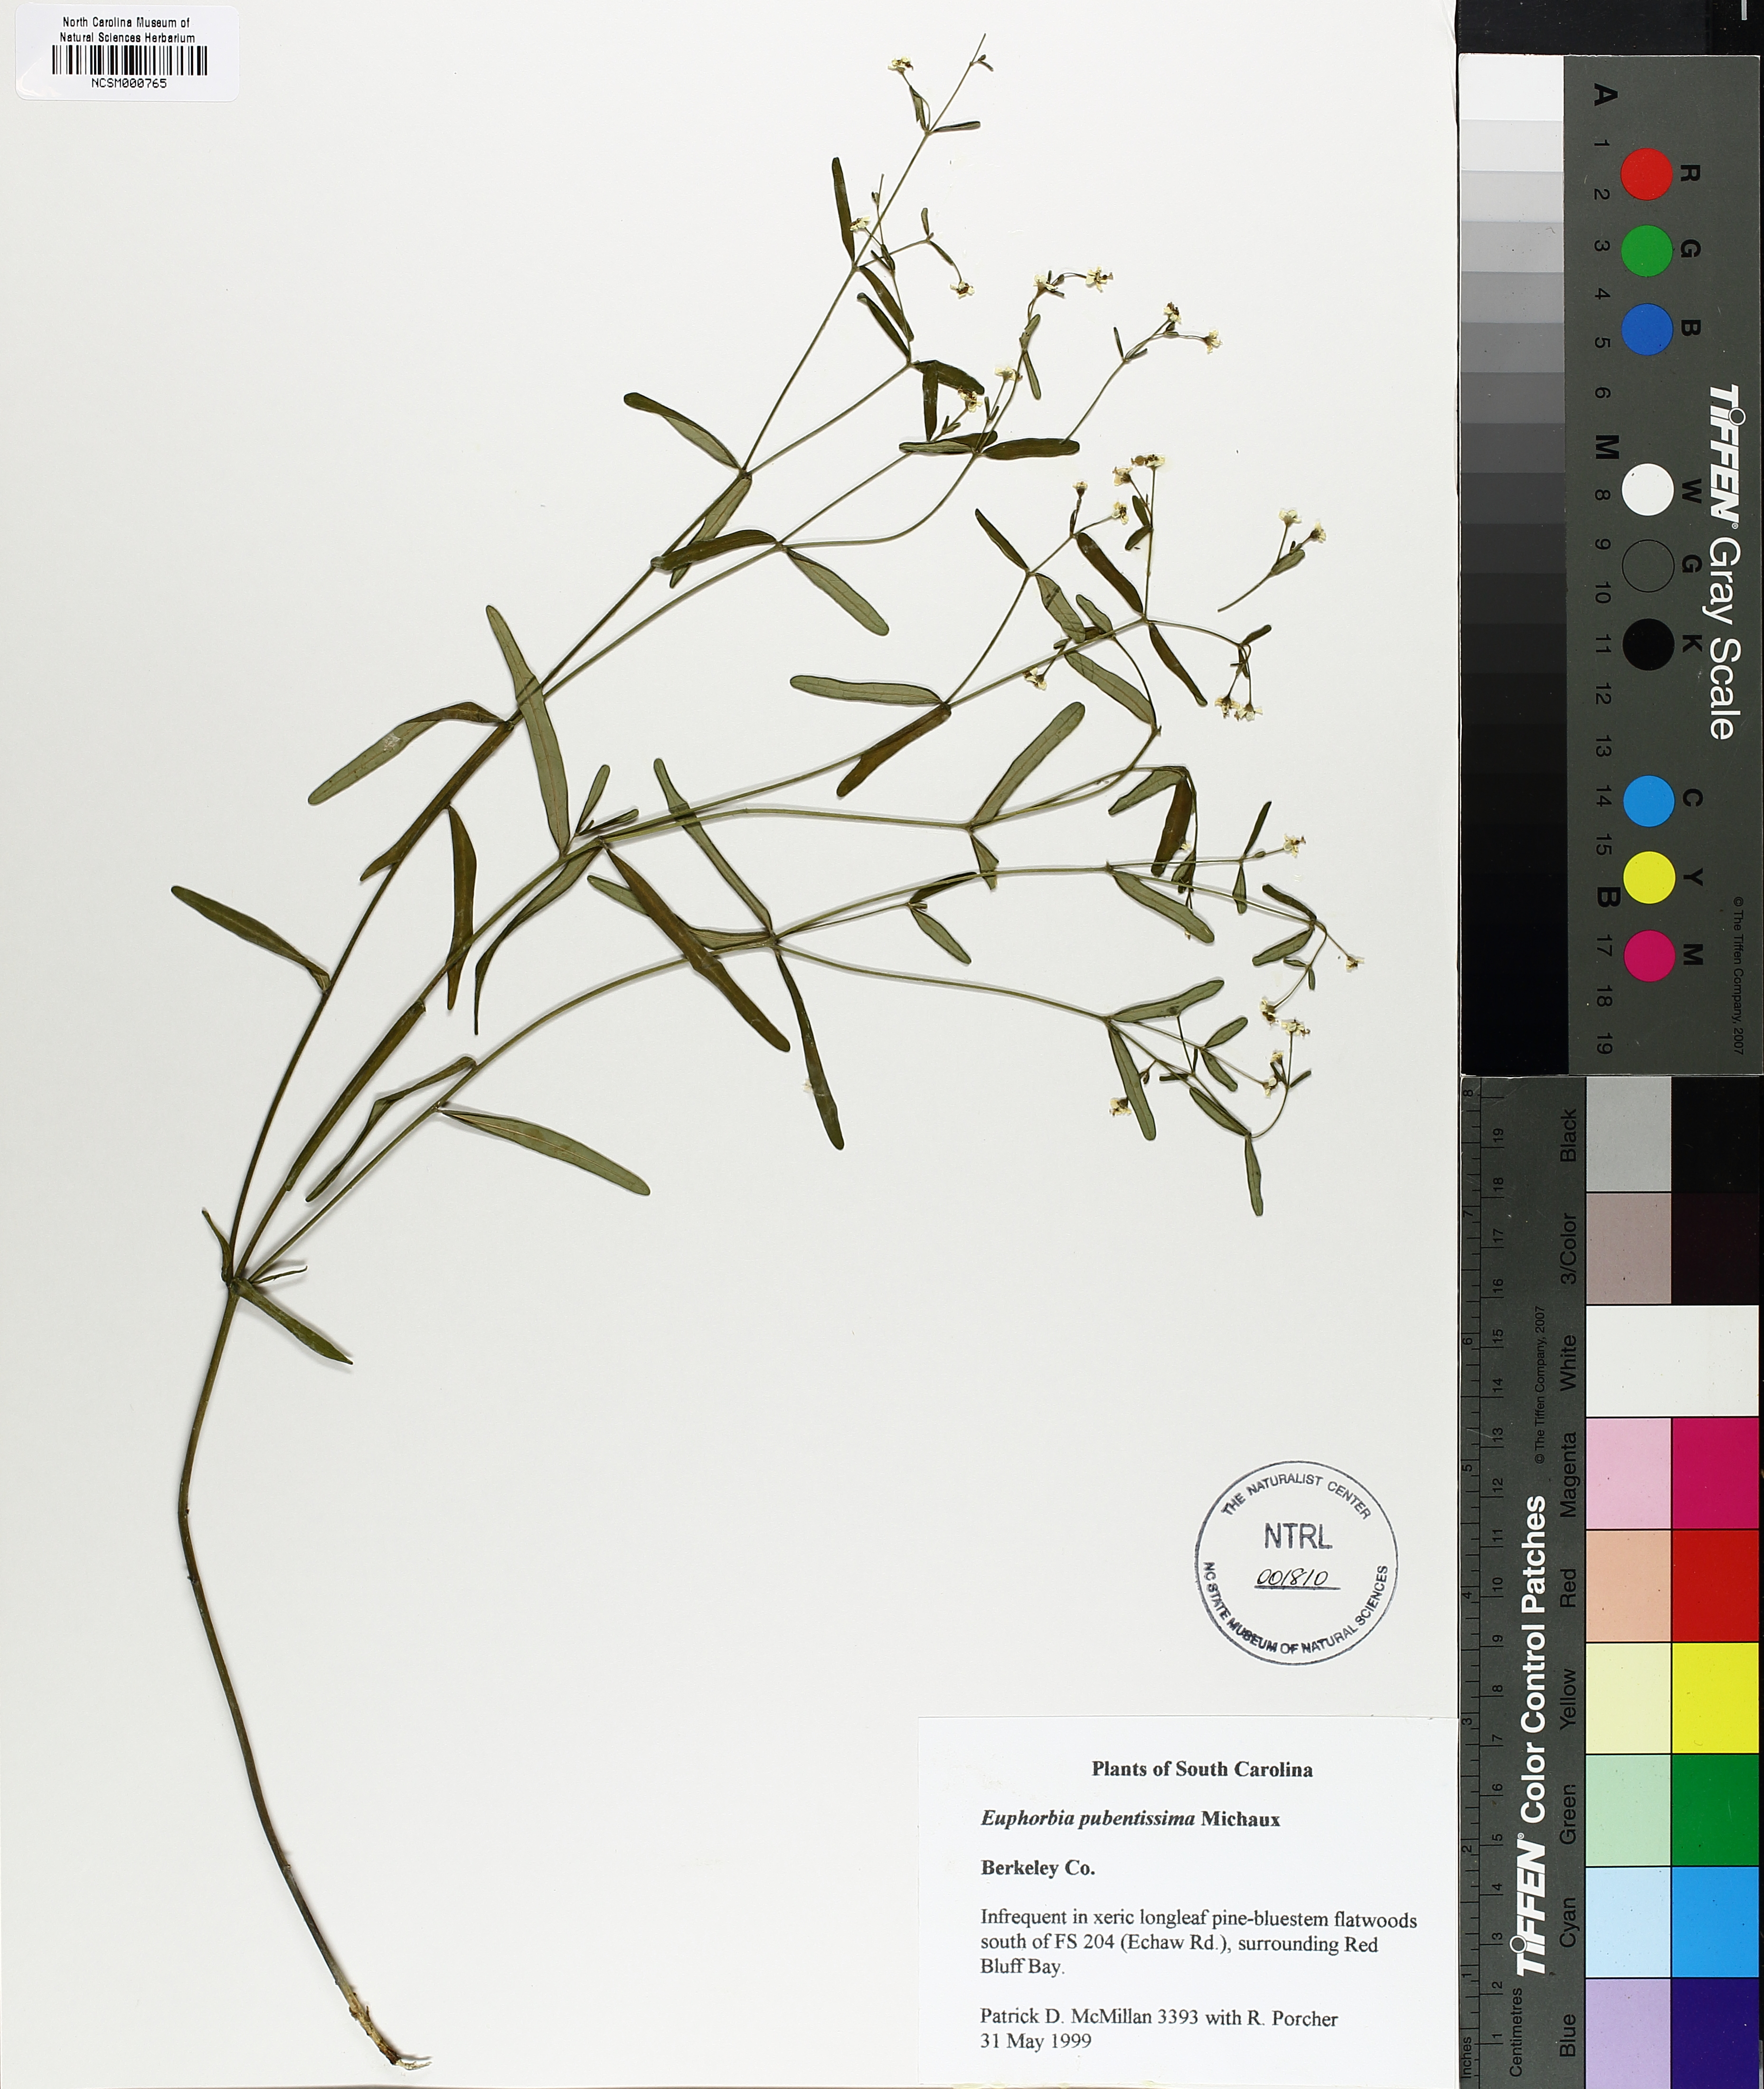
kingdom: Plantae
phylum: Tracheophyta
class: Magnoliopsida
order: Malpighiales
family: Euphorbiaceae
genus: Euphorbia
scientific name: Euphorbia pubentissima
